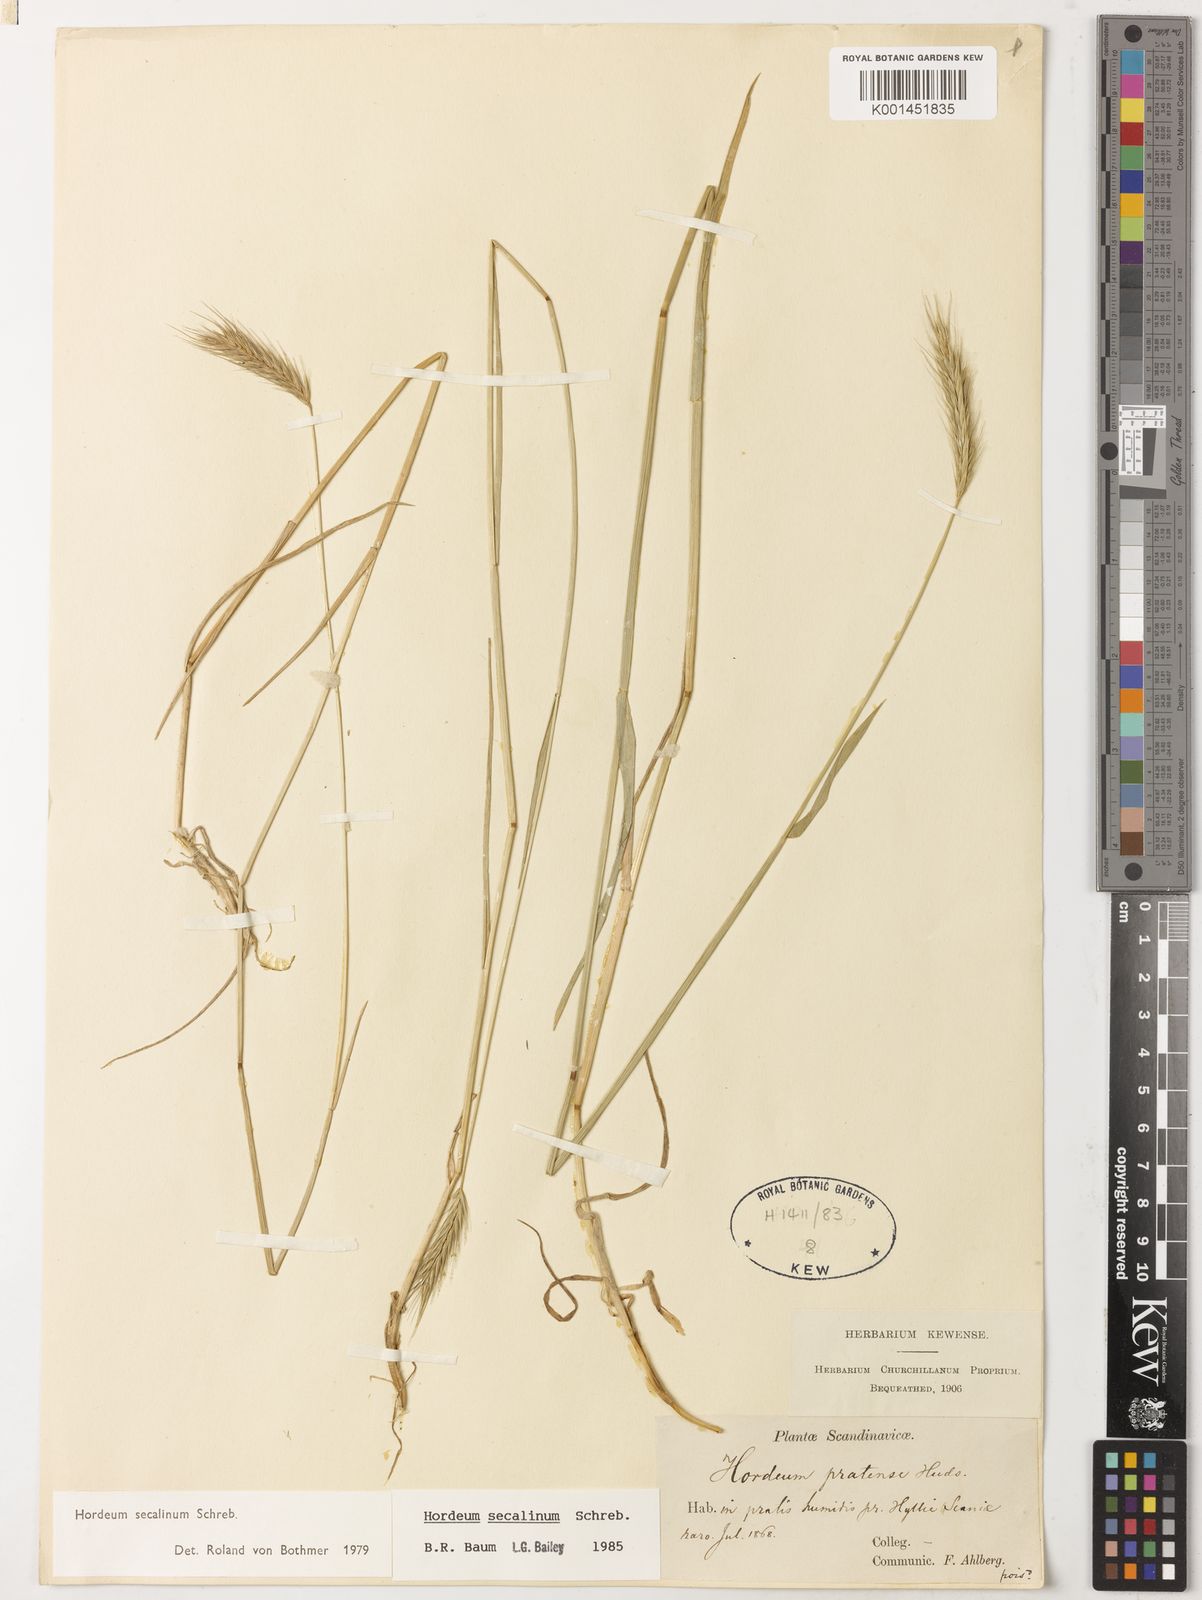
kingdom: Plantae
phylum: Tracheophyta
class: Liliopsida
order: Poales
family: Poaceae
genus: Hordeum
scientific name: Hordeum secalinum
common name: Meadow barley
